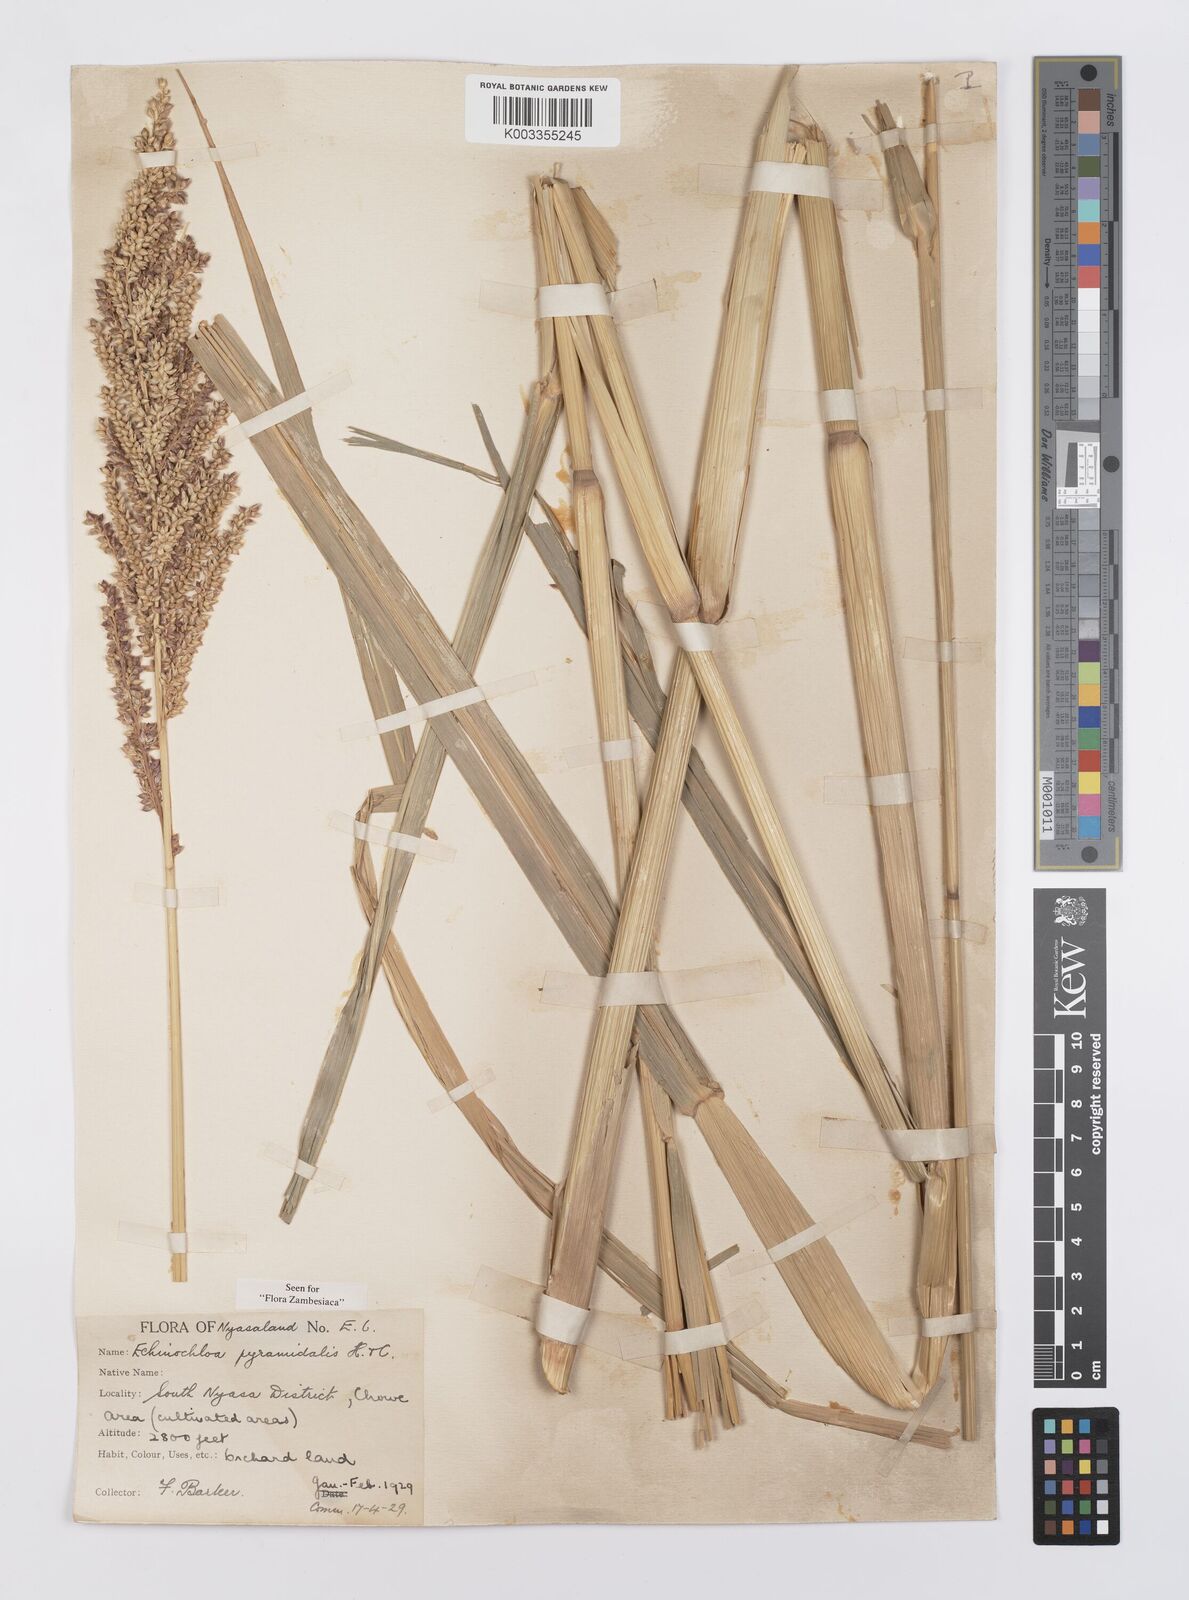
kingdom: Plantae
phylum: Tracheophyta
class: Liliopsida
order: Poales
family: Poaceae
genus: Echinochloa
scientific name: Echinochloa pyramidalis
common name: Antelope grass
